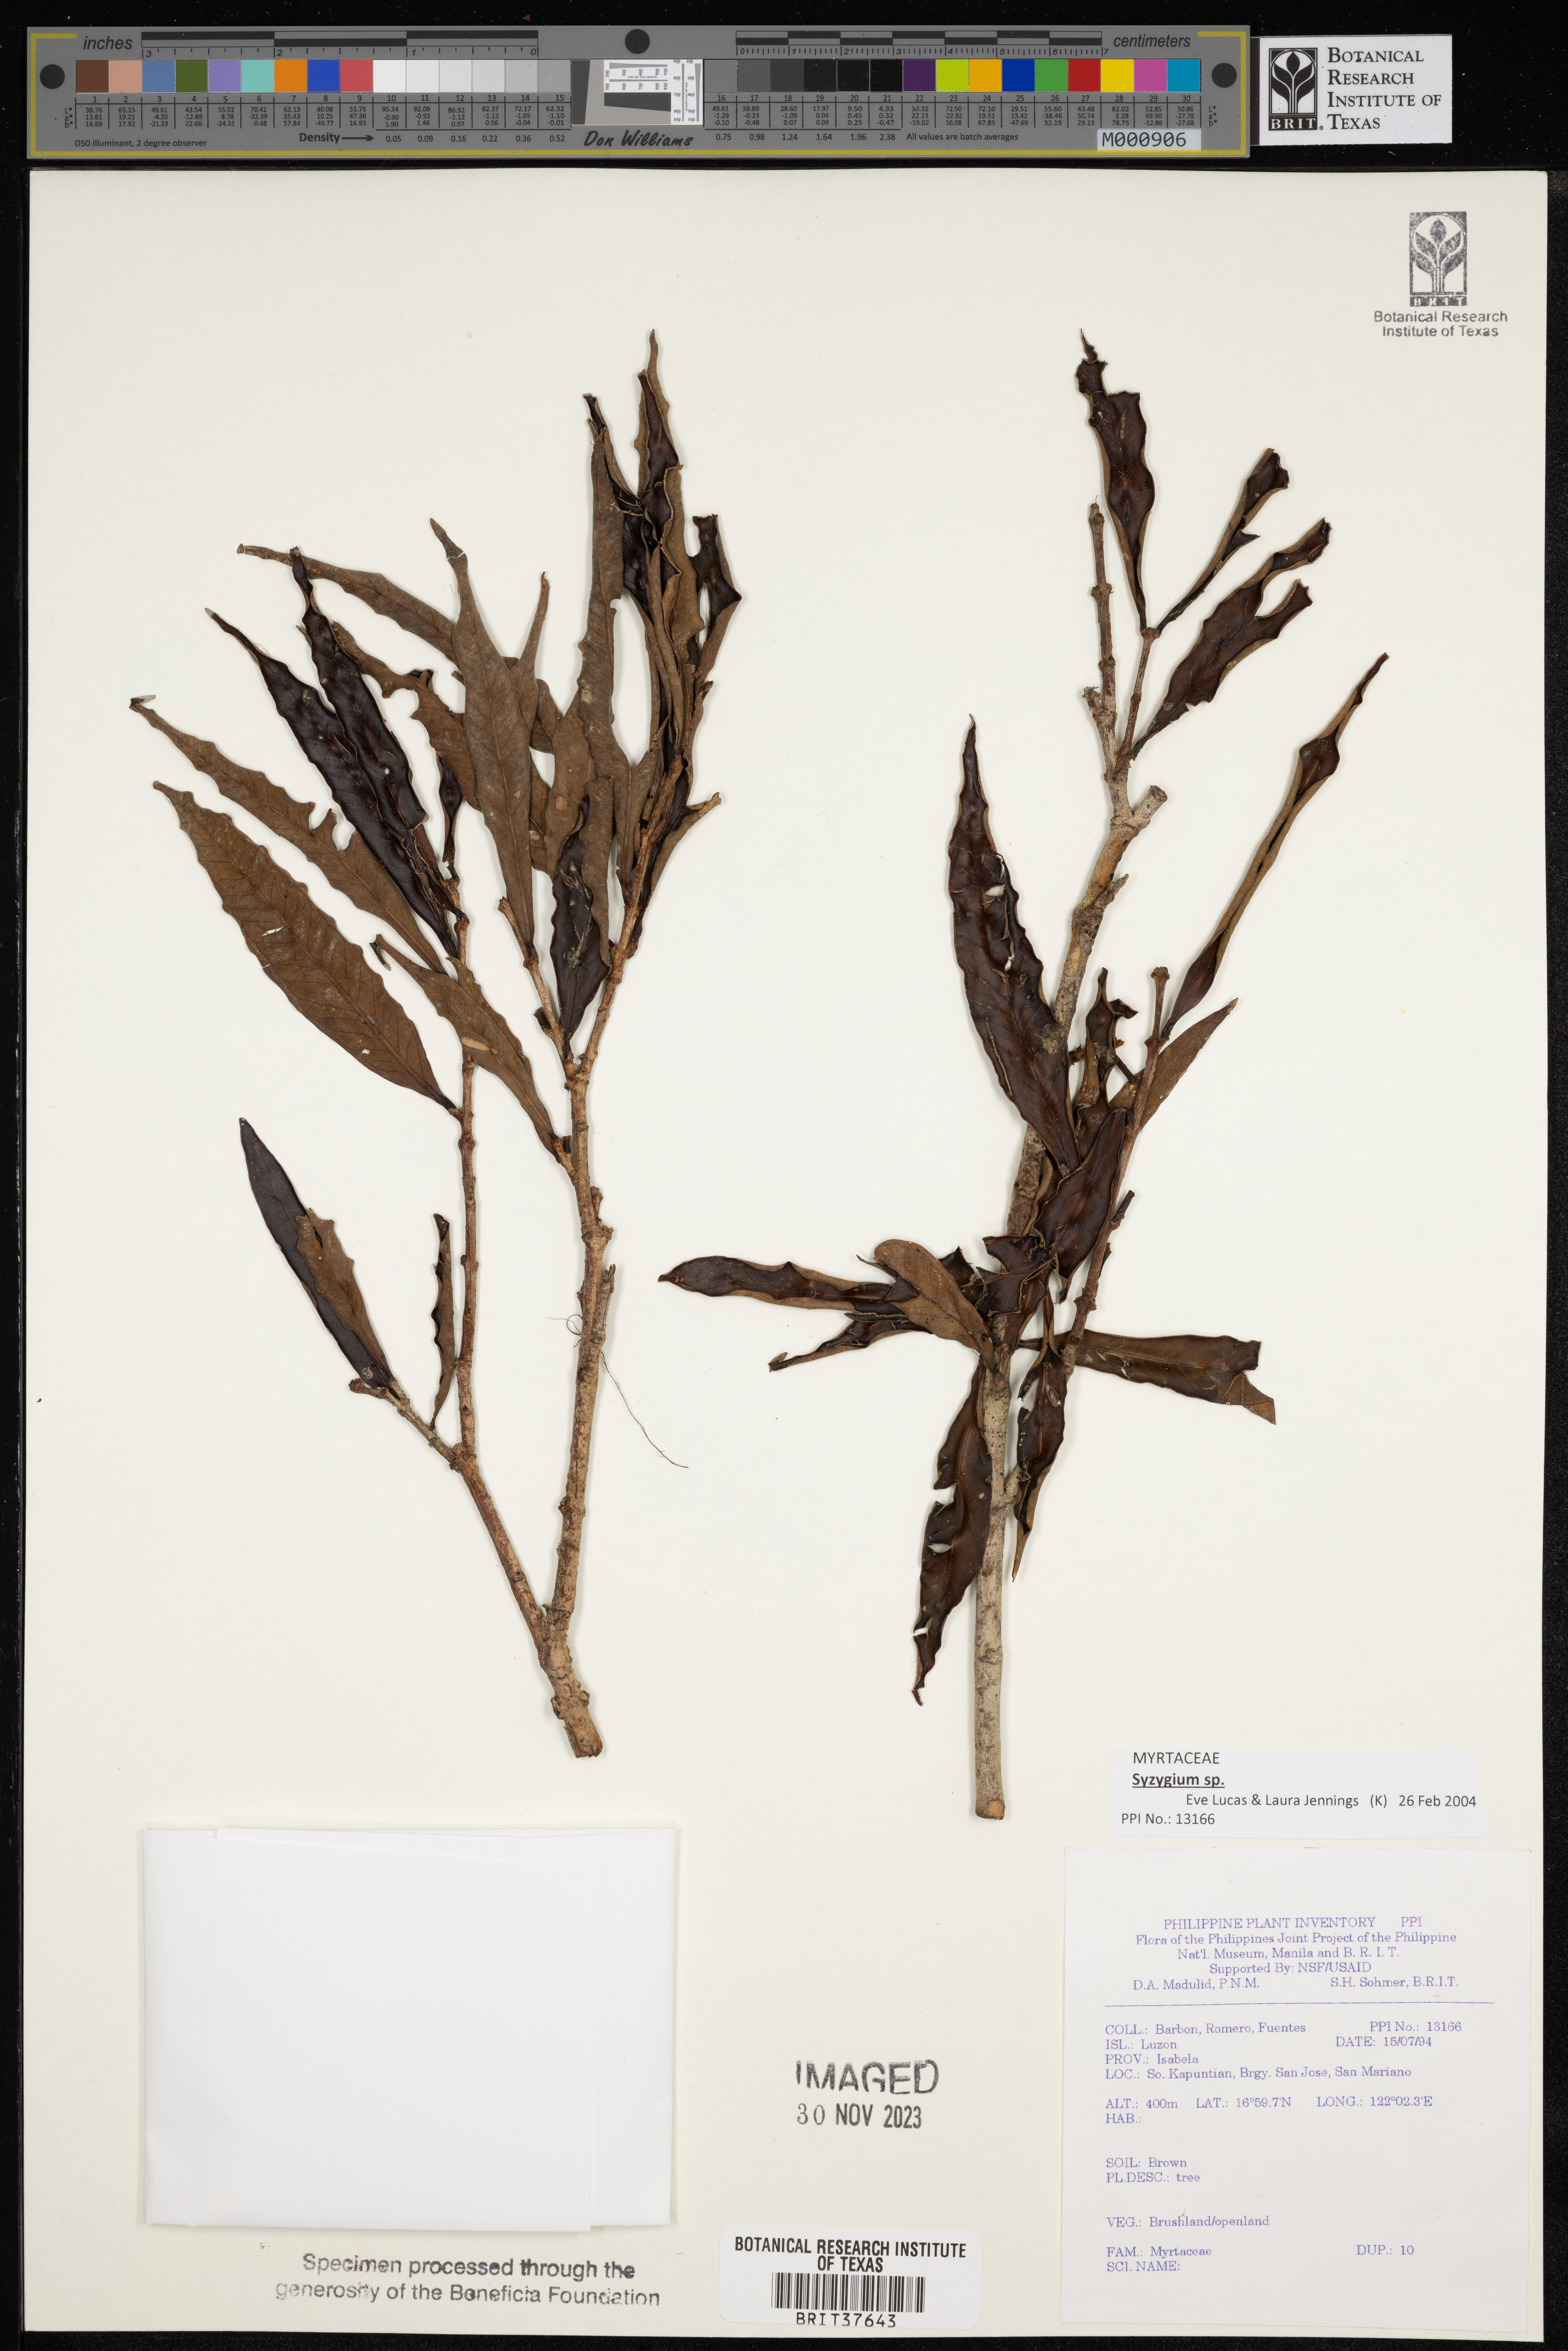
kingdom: Plantae
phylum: Tracheophyta
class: Magnoliopsida
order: Myrtales
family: Myrtaceae
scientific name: Myrtaceae
